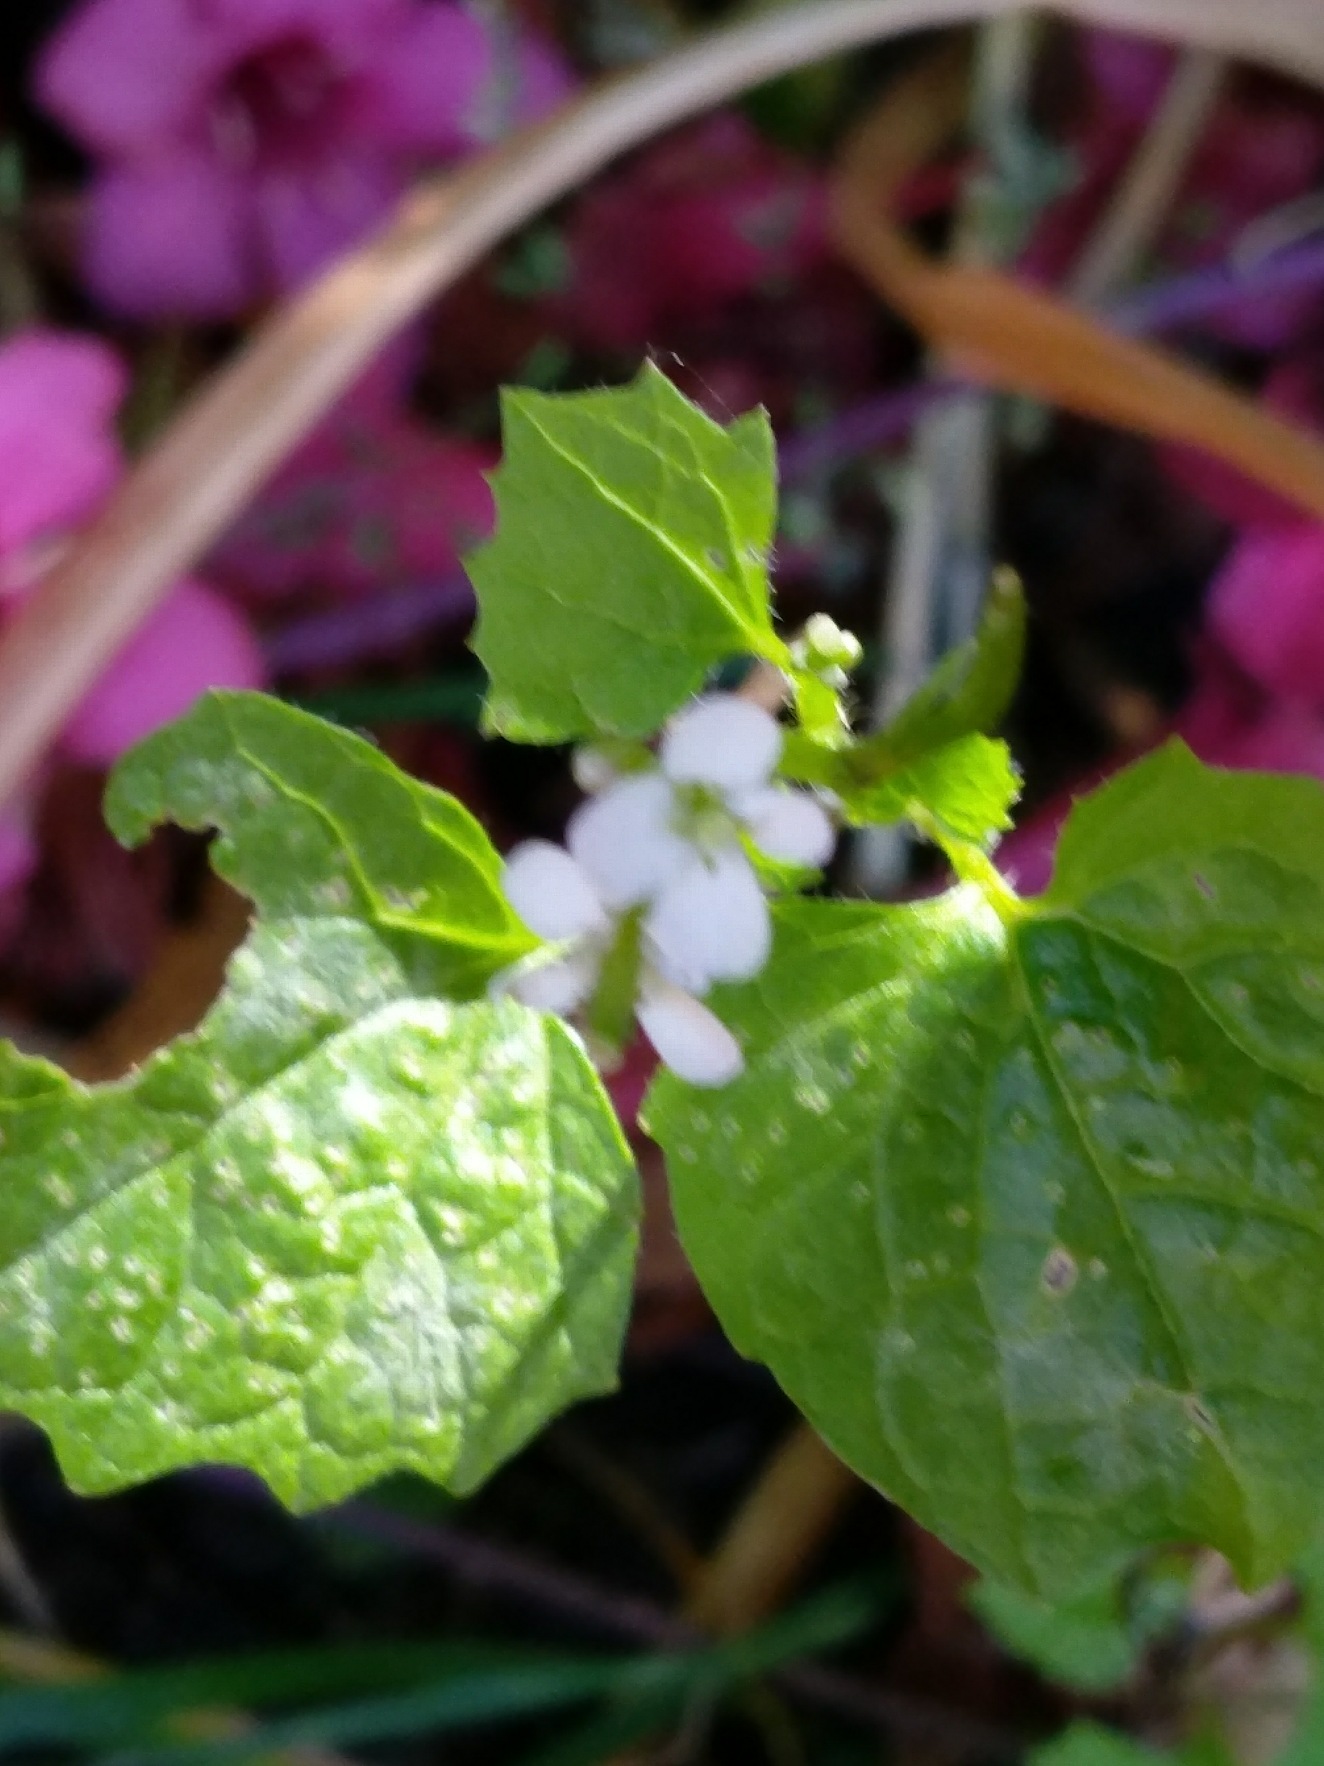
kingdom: Plantae
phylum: Tracheophyta
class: Magnoliopsida
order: Brassicales
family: Brassicaceae
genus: Alliaria
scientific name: Alliaria petiolata
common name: Løgkarse
